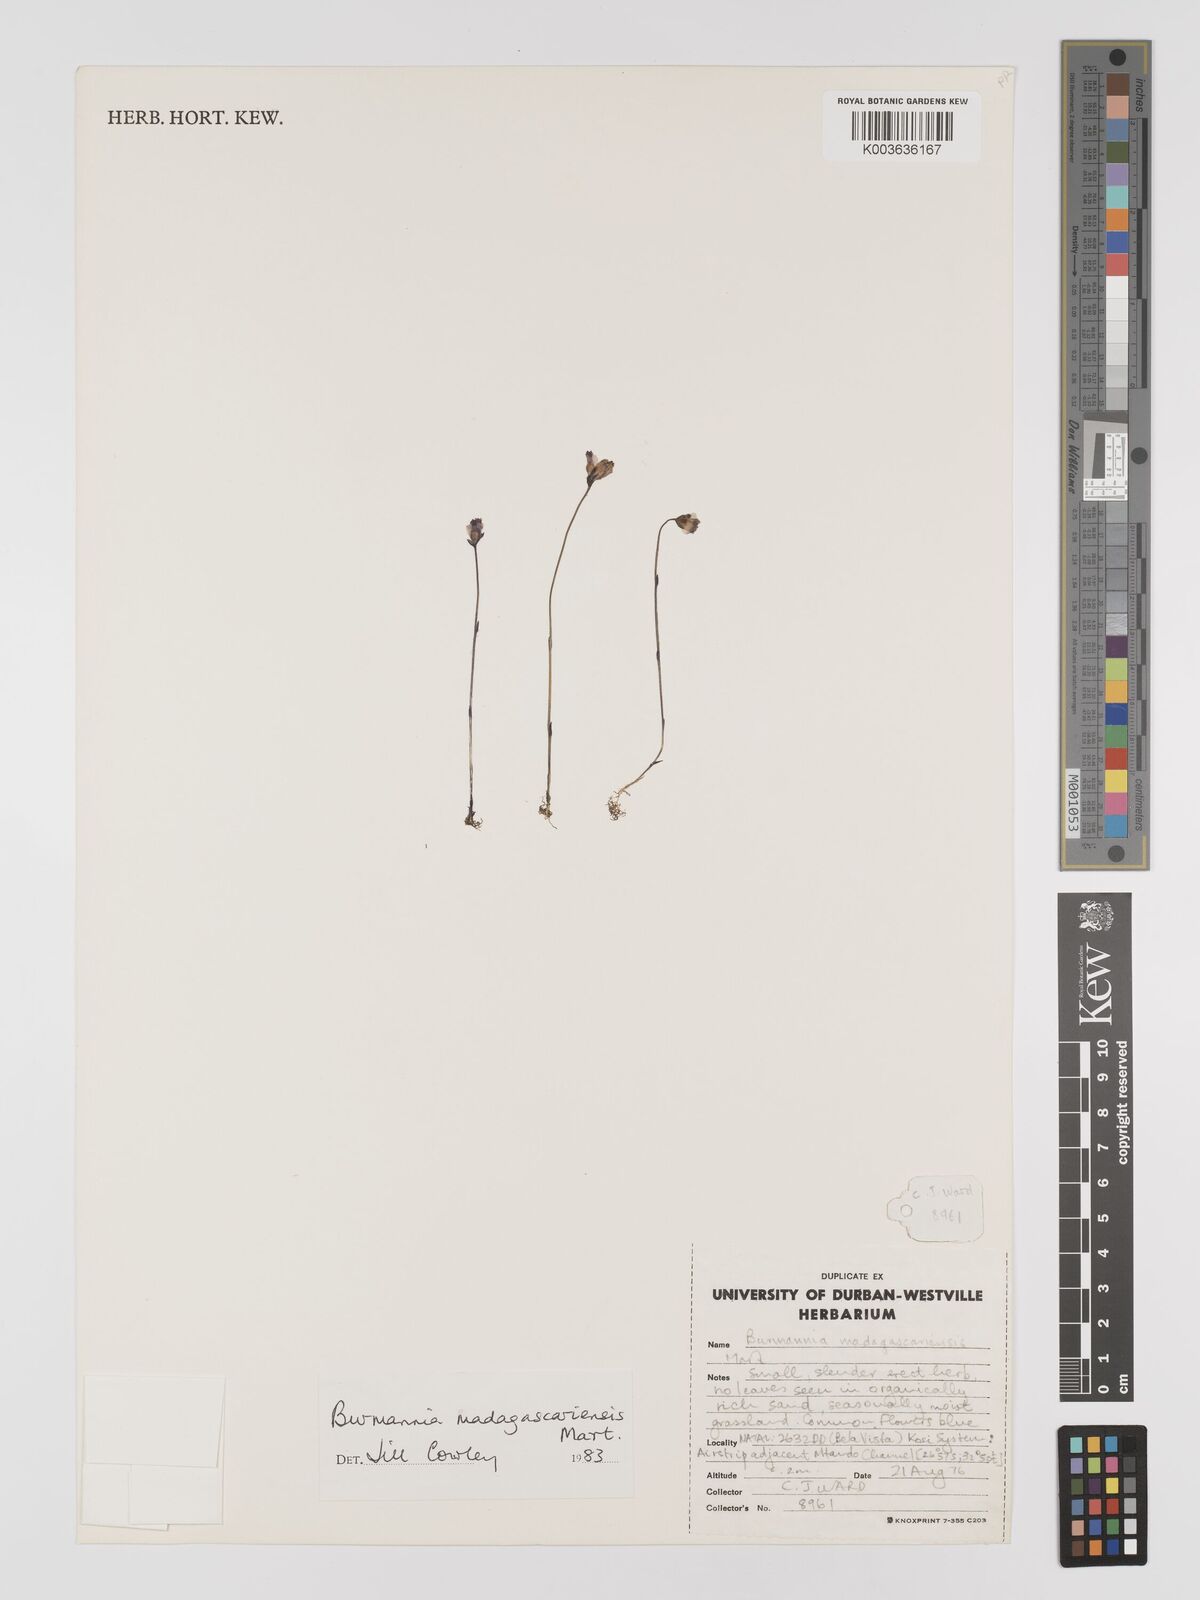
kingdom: Plantae
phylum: Tracheophyta
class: Liliopsida
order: Dioscoreales
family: Burmanniaceae
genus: Burmannia
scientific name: Burmannia madagascariensis
